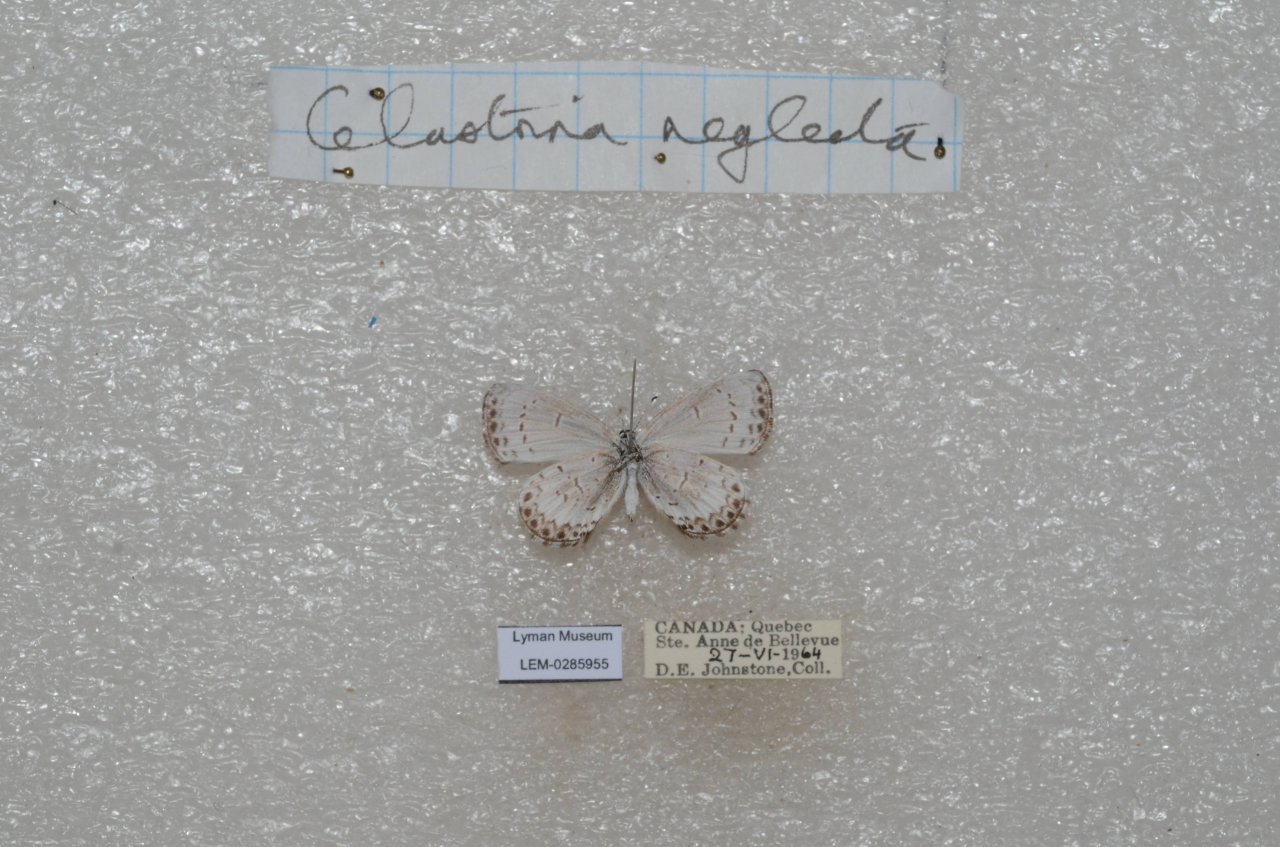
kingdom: Animalia
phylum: Arthropoda
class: Insecta
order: Lepidoptera
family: Lycaenidae
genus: Celastrina
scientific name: Celastrina lucia
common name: Northern Spring Azure
